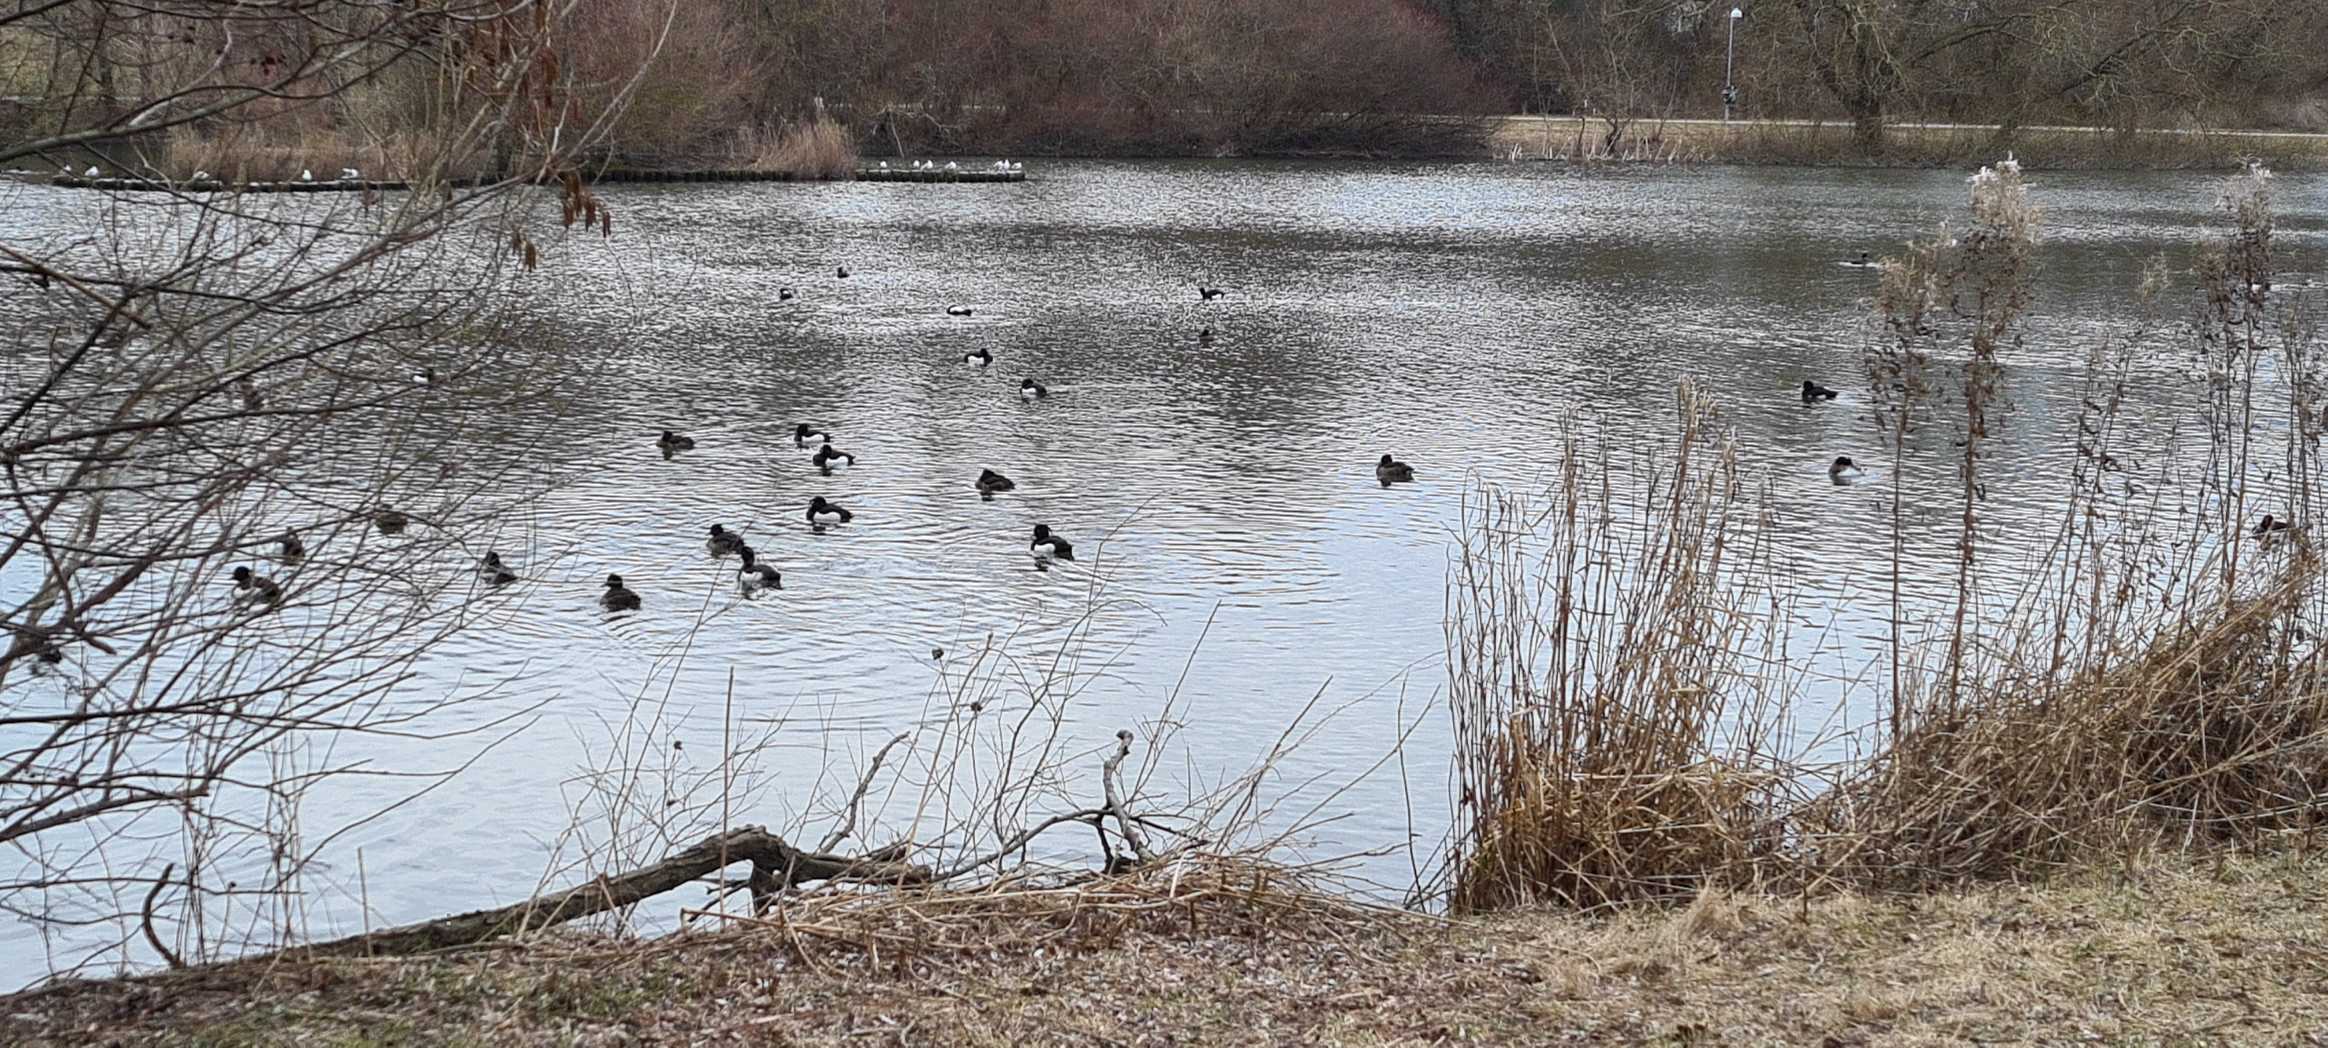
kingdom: Animalia
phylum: Chordata
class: Aves
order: Anseriformes
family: Anatidae
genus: Aythya
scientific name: Aythya fuligula
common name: Troldand
